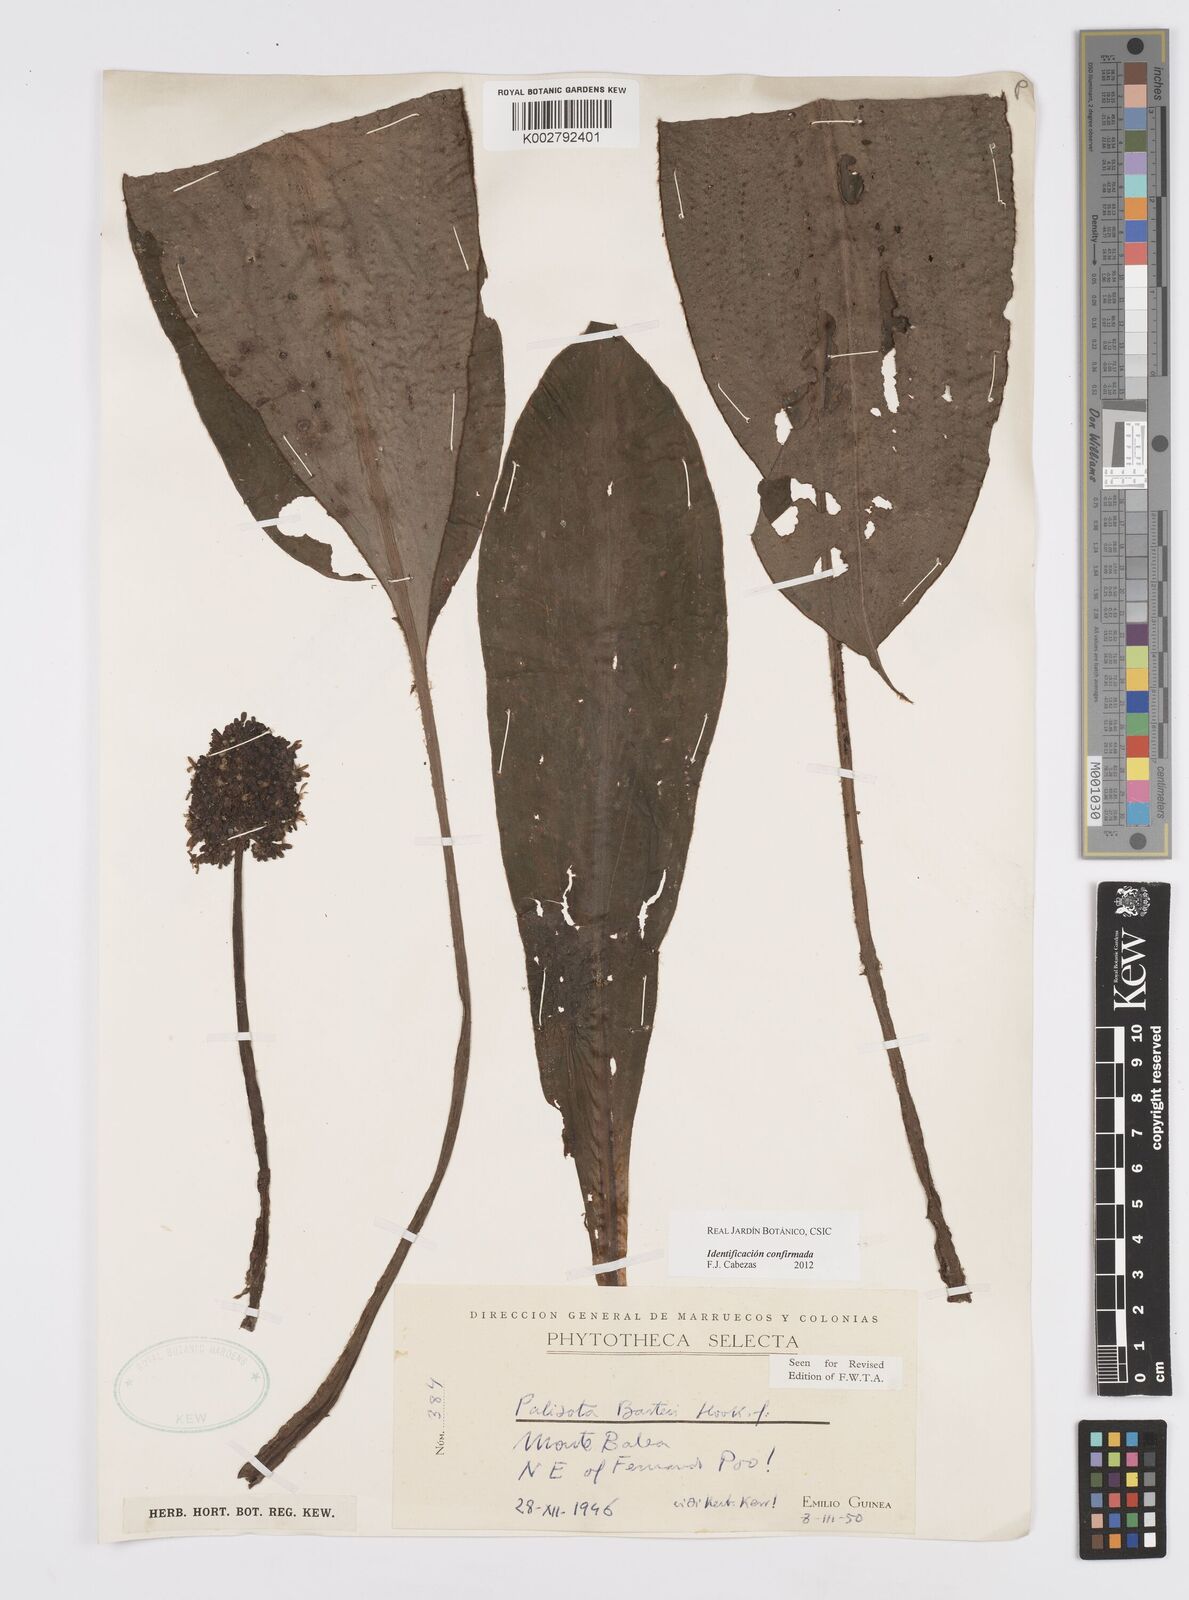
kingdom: Plantae
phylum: Tracheophyta
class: Liliopsida
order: Commelinales
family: Commelinaceae
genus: Palisota
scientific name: Palisota barteri
